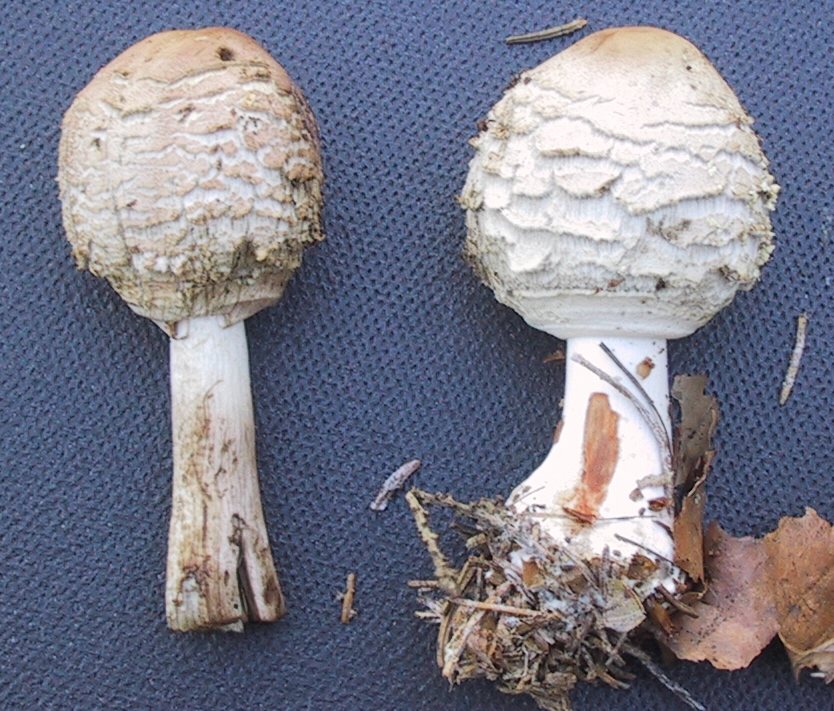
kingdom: Fungi
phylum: Basidiomycota
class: Agaricomycetes
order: Agaricales
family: Agaricaceae
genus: Chlorophyllum
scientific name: Chlorophyllum olivieri
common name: almindelig rabarberhat
